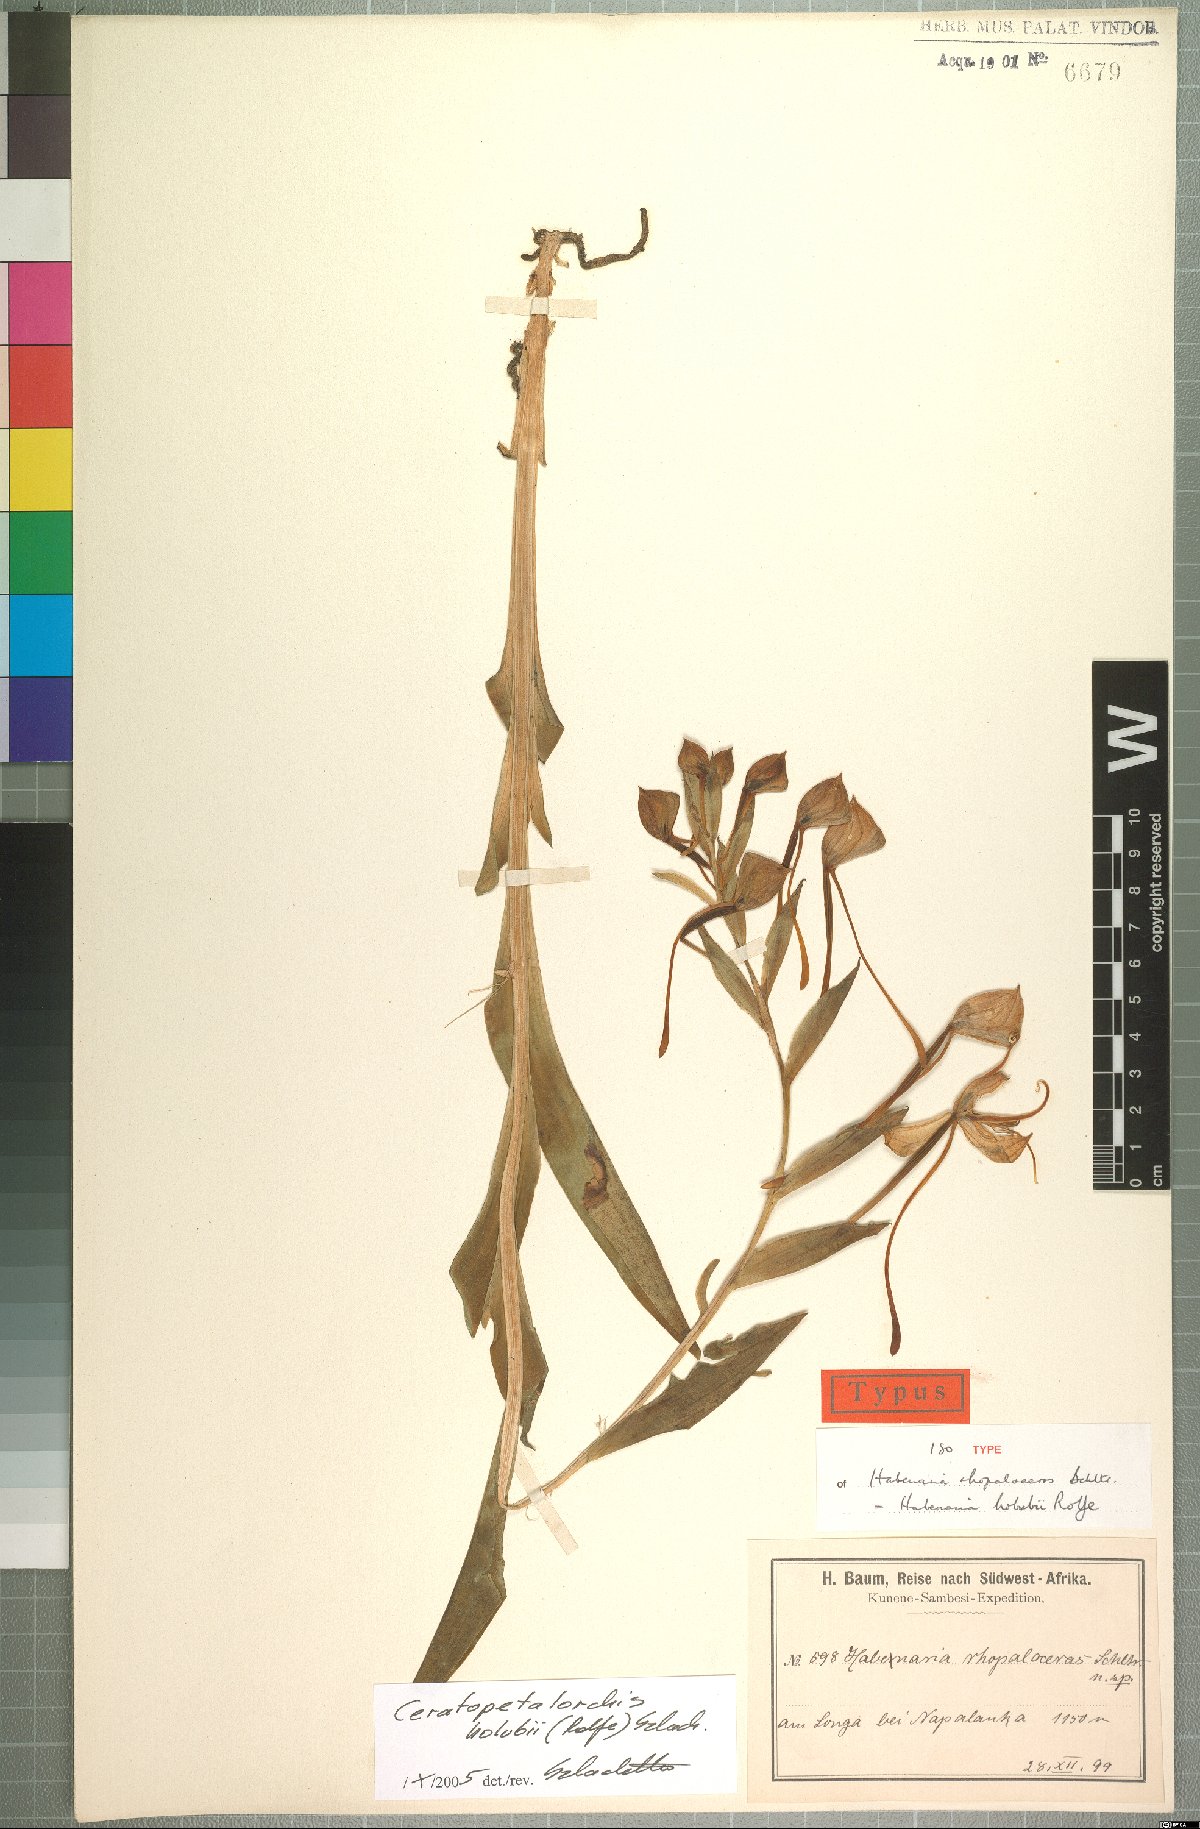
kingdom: Plantae
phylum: Tracheophyta
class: Liliopsida
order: Asparagales
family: Orchidaceae
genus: Habenaria
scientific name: Habenaria holubii
